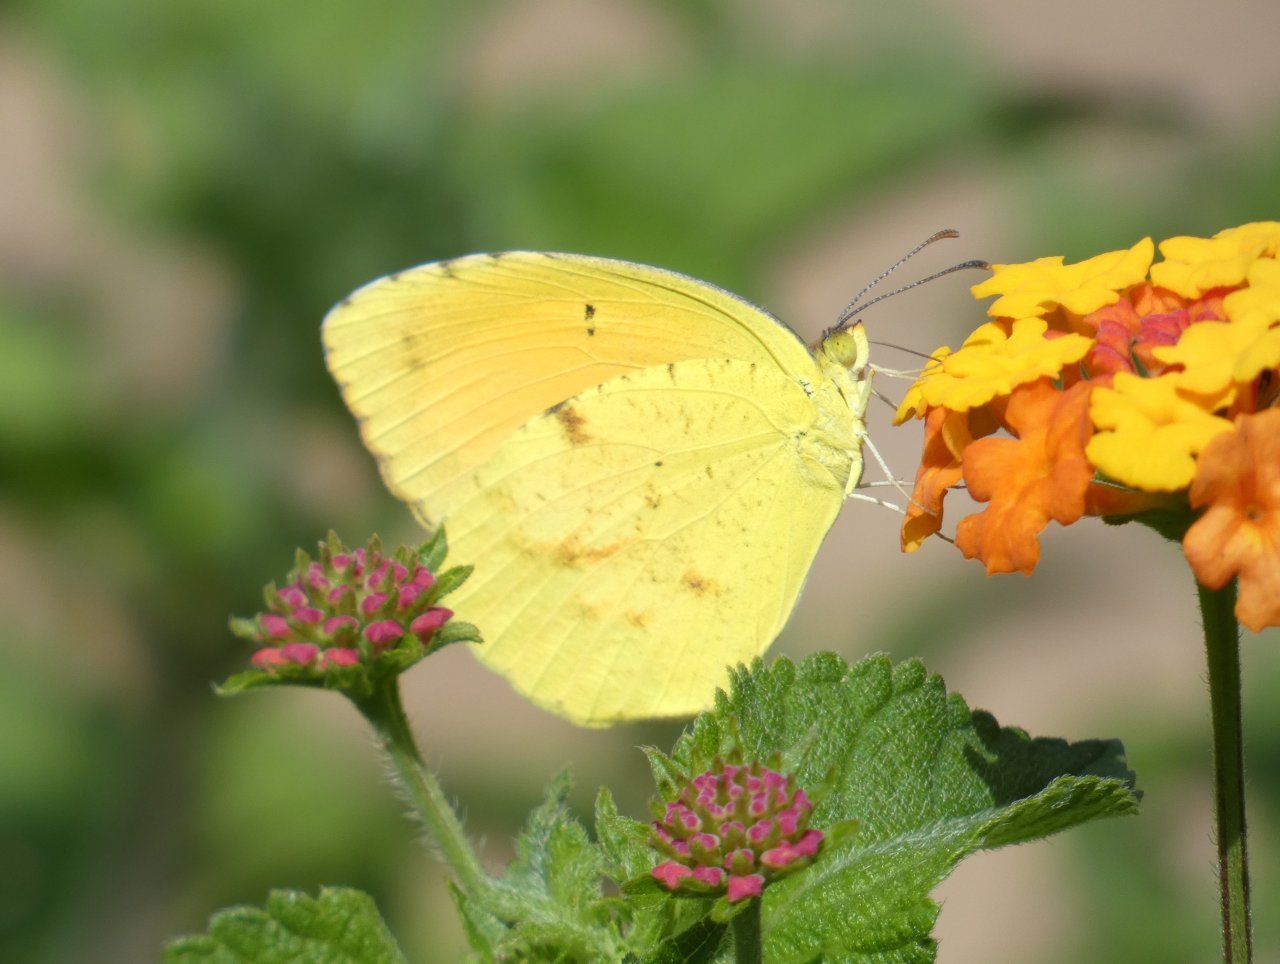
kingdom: Animalia
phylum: Arthropoda
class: Insecta
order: Lepidoptera
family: Pieridae
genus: Abaeis
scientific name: Abaeis nicippe
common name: Sleepy Orange
